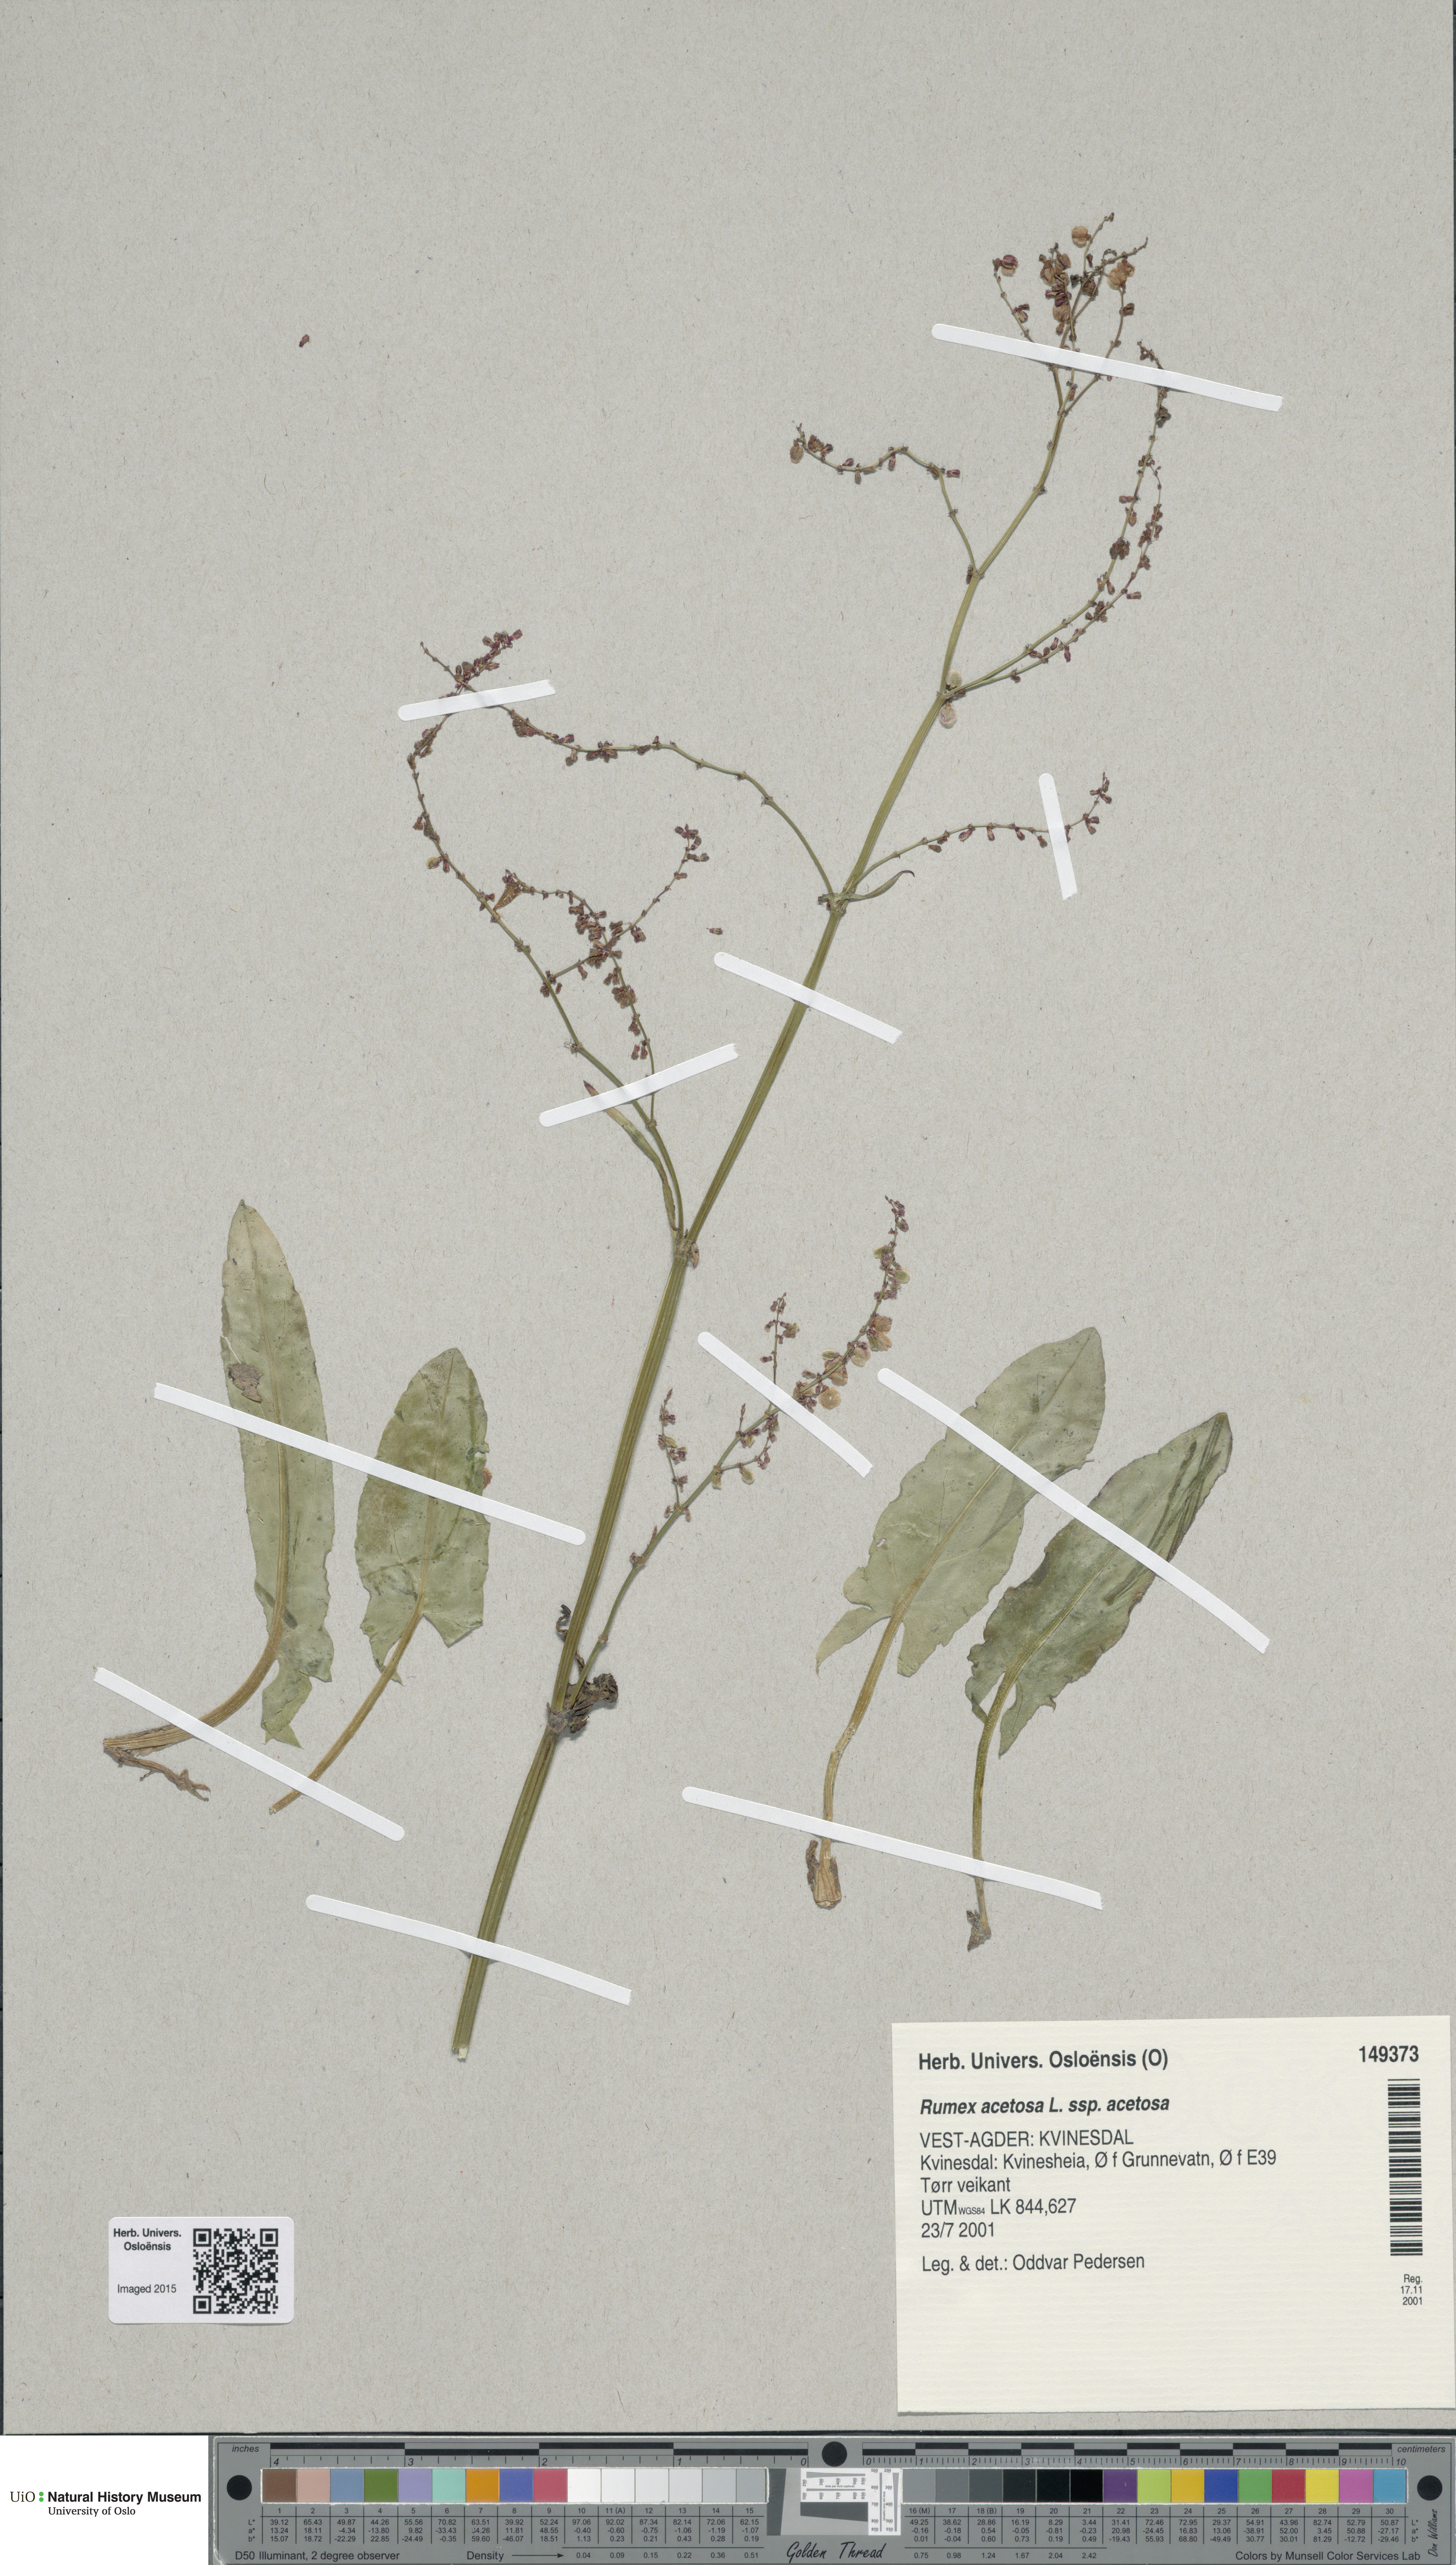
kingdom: Plantae
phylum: Tracheophyta
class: Magnoliopsida
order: Caryophyllales
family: Polygonaceae
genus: Rumex
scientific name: Rumex acetosa
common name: Garden sorrel
